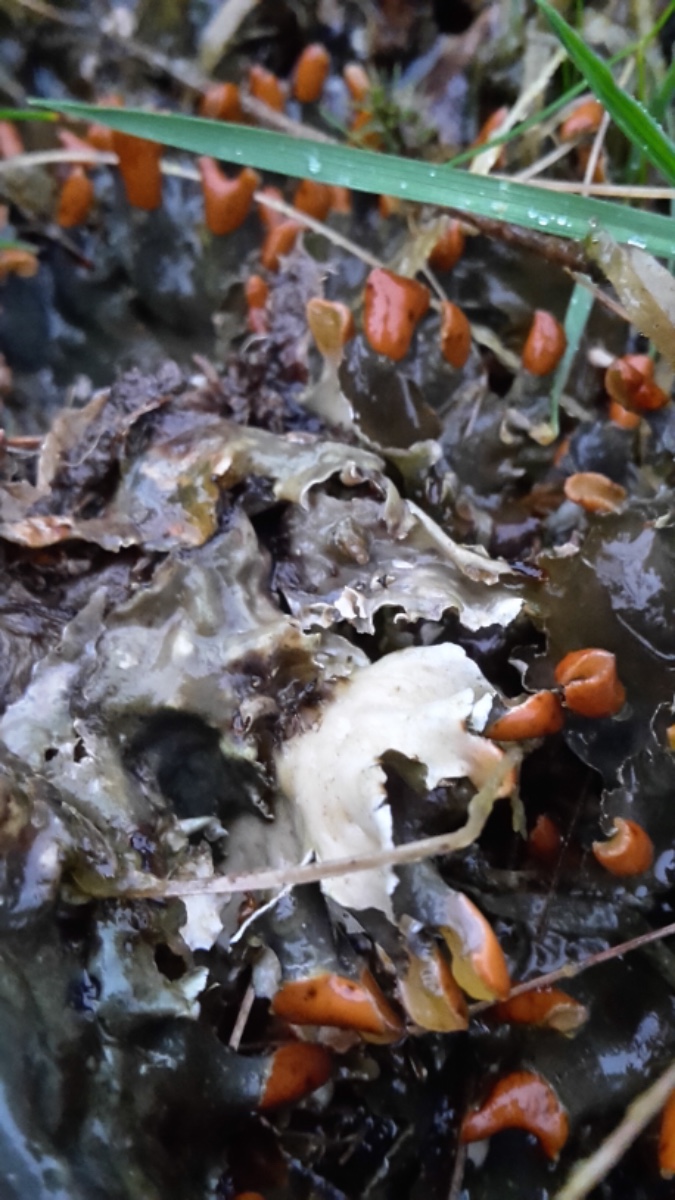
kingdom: Fungi
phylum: Ascomycota
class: Lecanoromycetes
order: Peltigerales
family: Peltigeraceae
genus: Peltigera
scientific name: Peltigera didactyla
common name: liden skjoldlav
